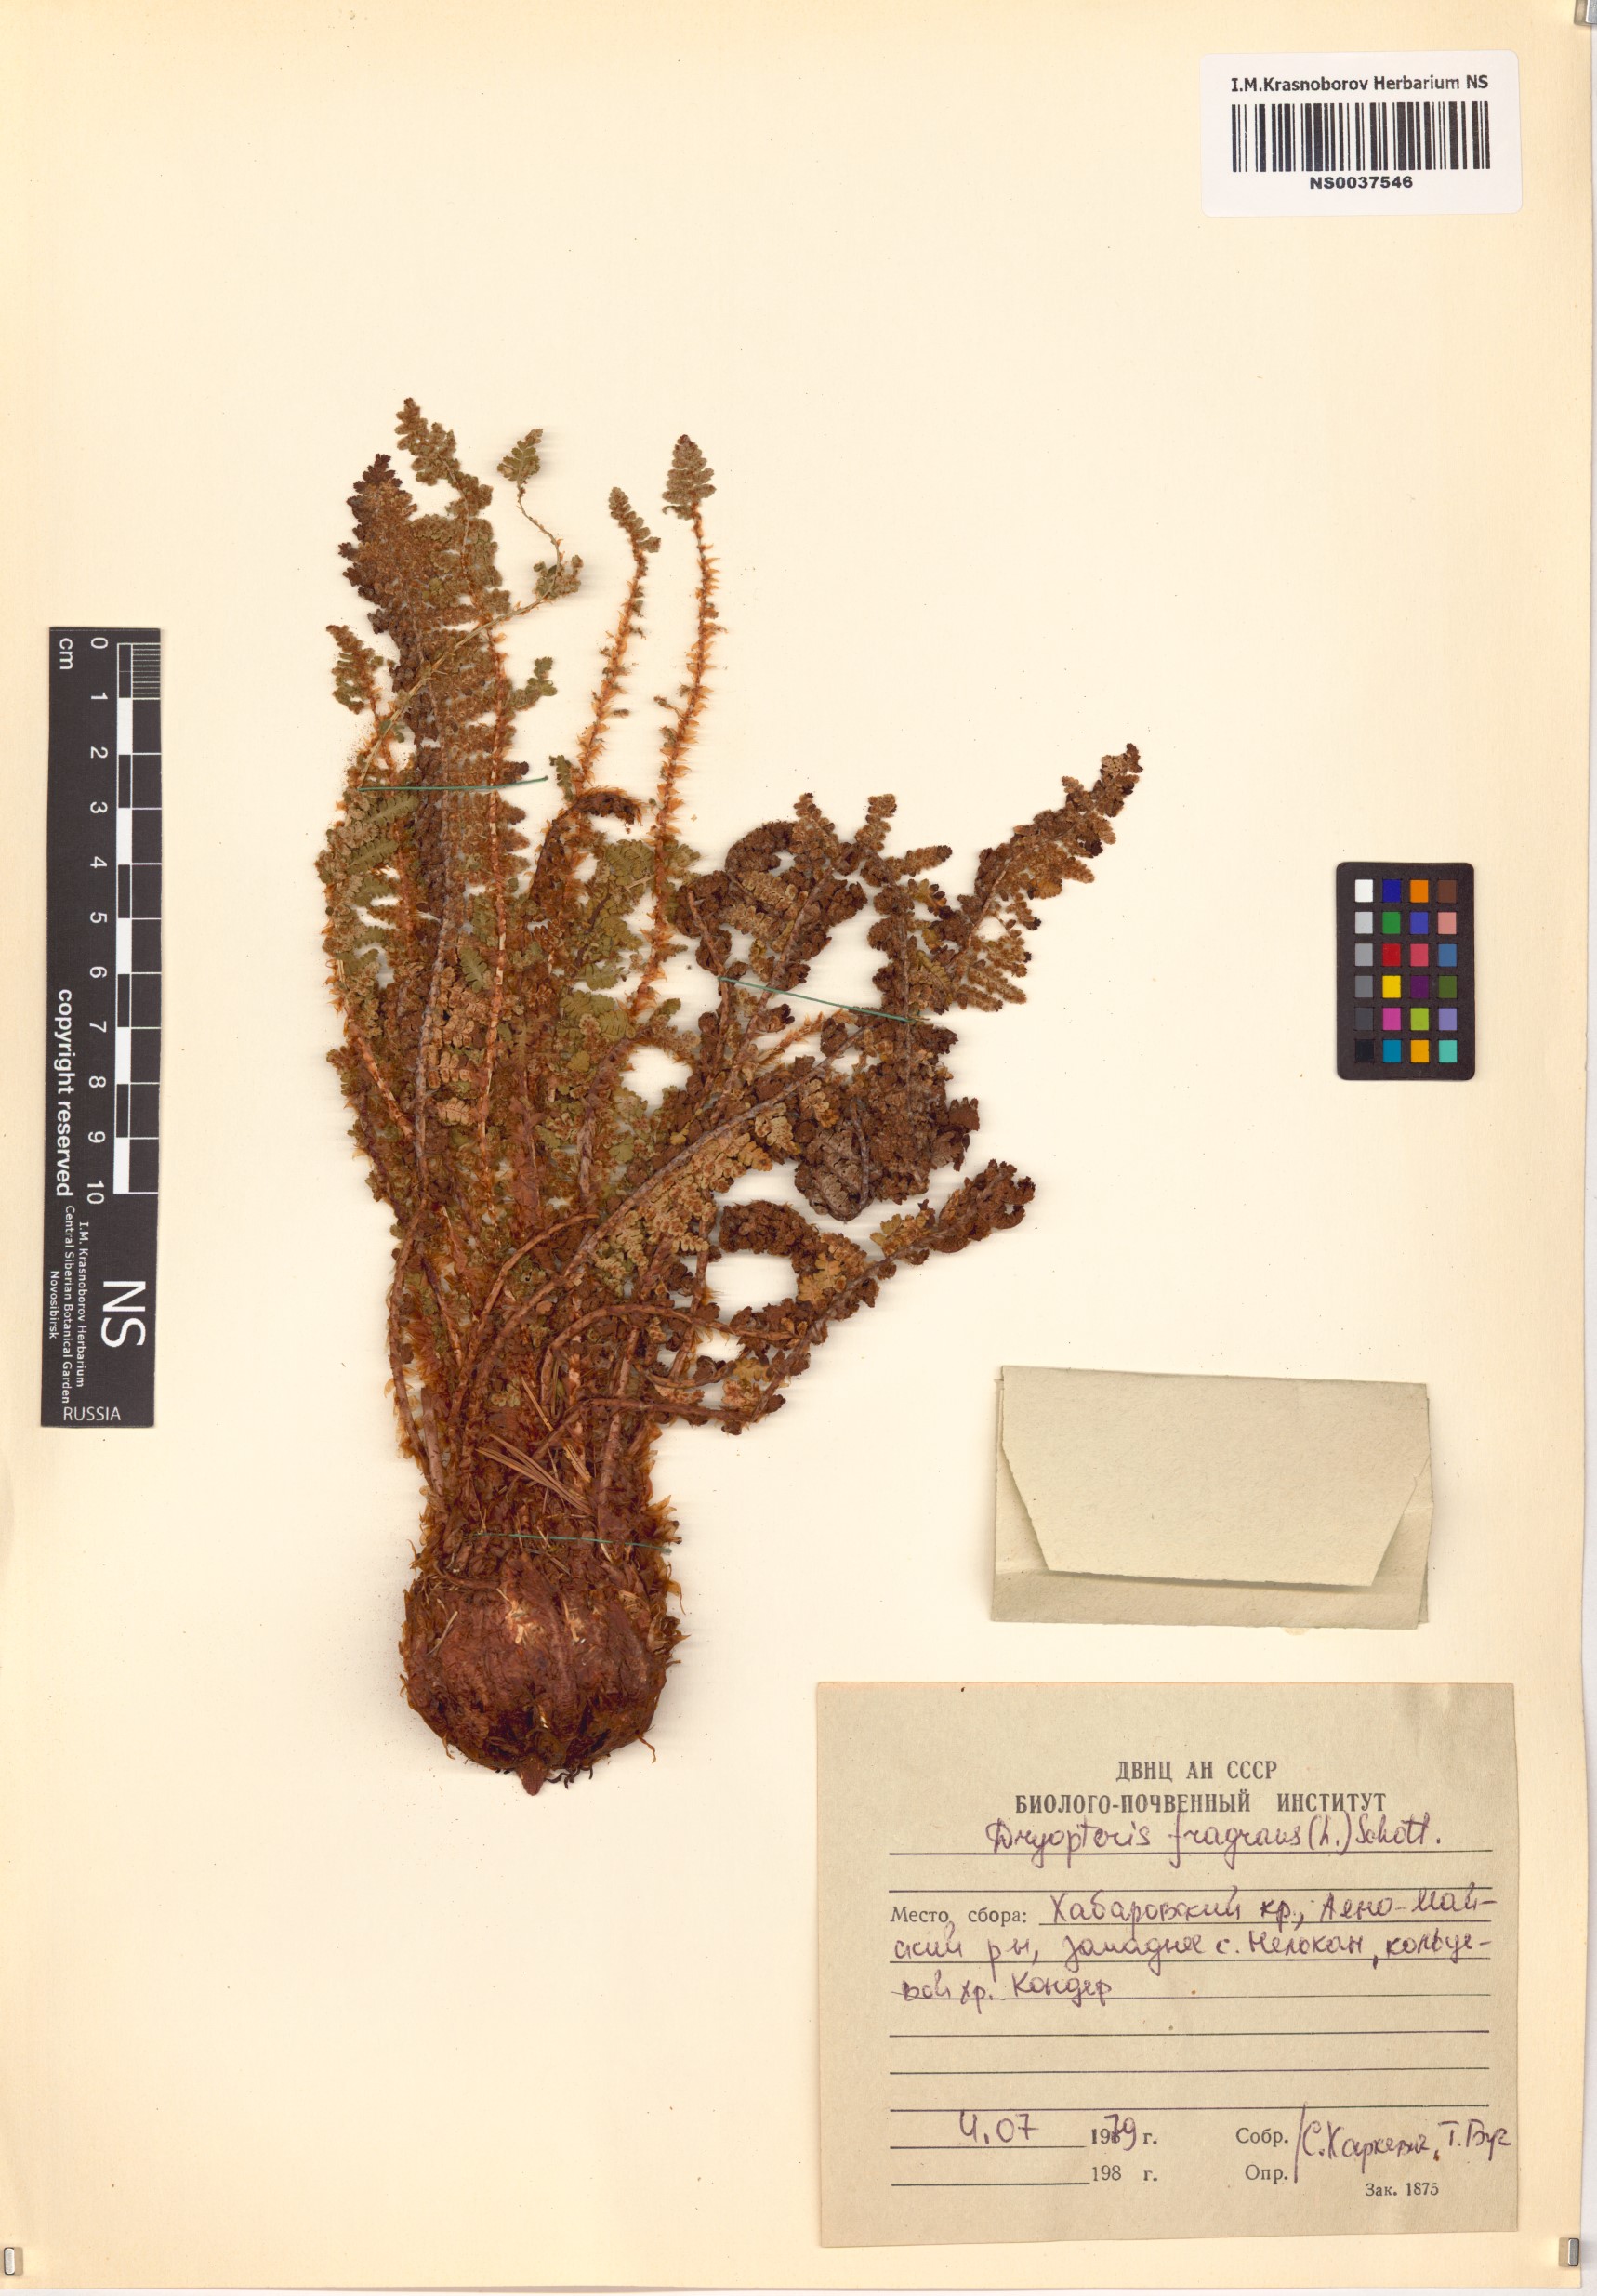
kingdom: Plantae
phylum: Tracheophyta
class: Polypodiopsida
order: Polypodiales
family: Dryopteridaceae
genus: Dryopteris
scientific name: Dryopteris fragrans
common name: Fragrant wood fern
